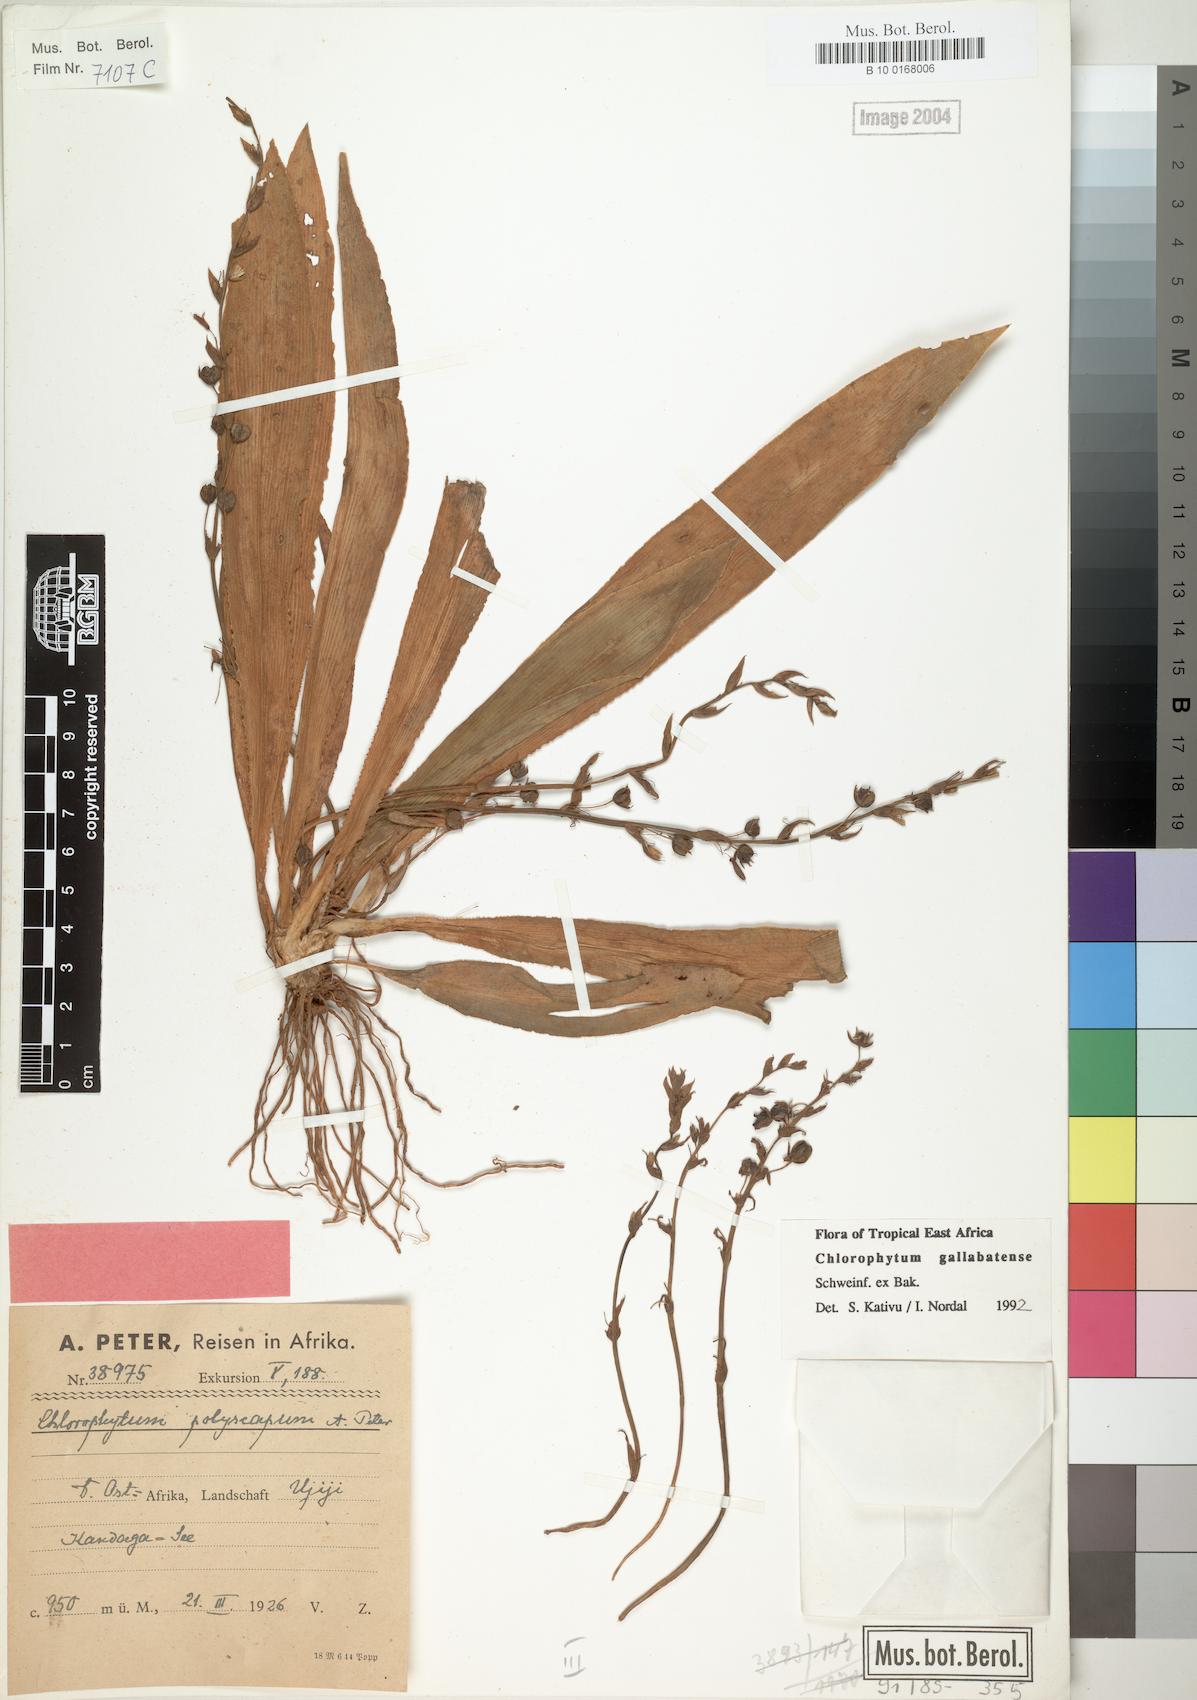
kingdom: Plantae
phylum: Tracheophyta
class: Liliopsida
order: Asparagales
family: Asparagaceae
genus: Chlorophytum
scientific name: Chlorophytum gallabatense
